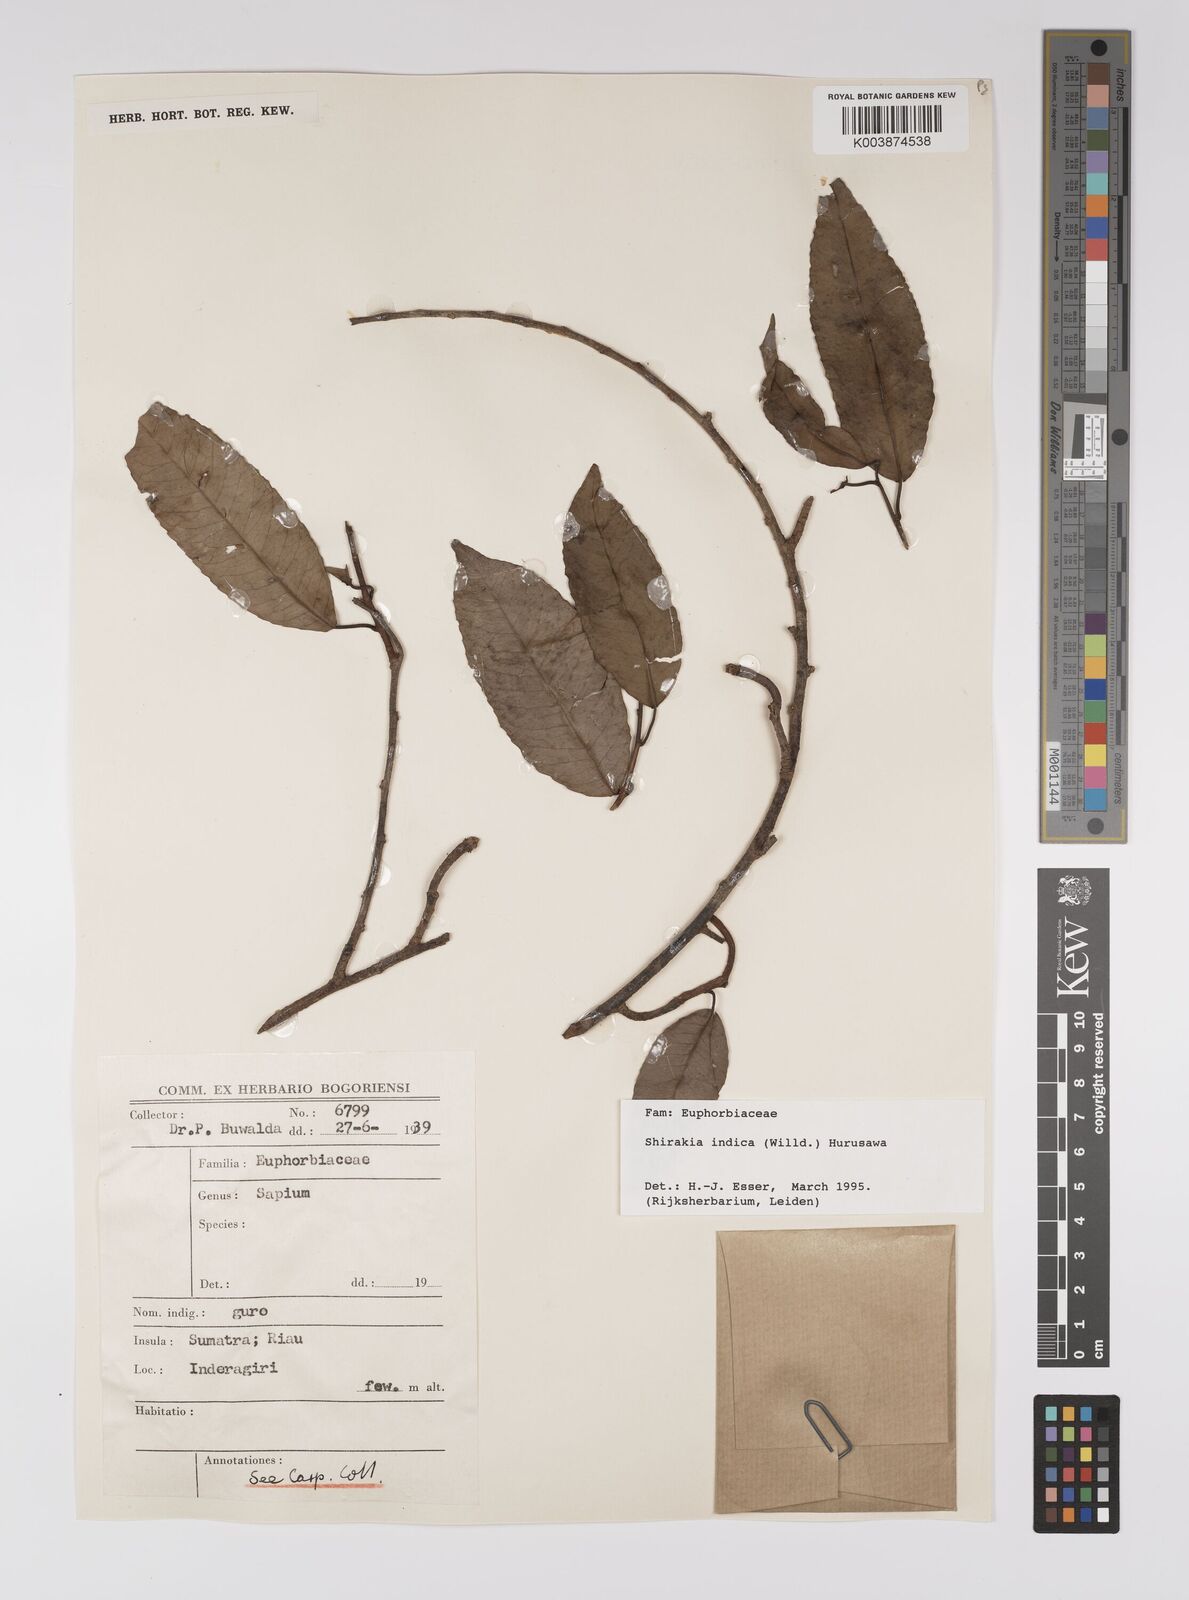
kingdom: Plantae
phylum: Tracheophyta
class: Magnoliopsida
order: Malpighiales
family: Euphorbiaceae
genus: Shirakiopsis
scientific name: Shirakiopsis indica
